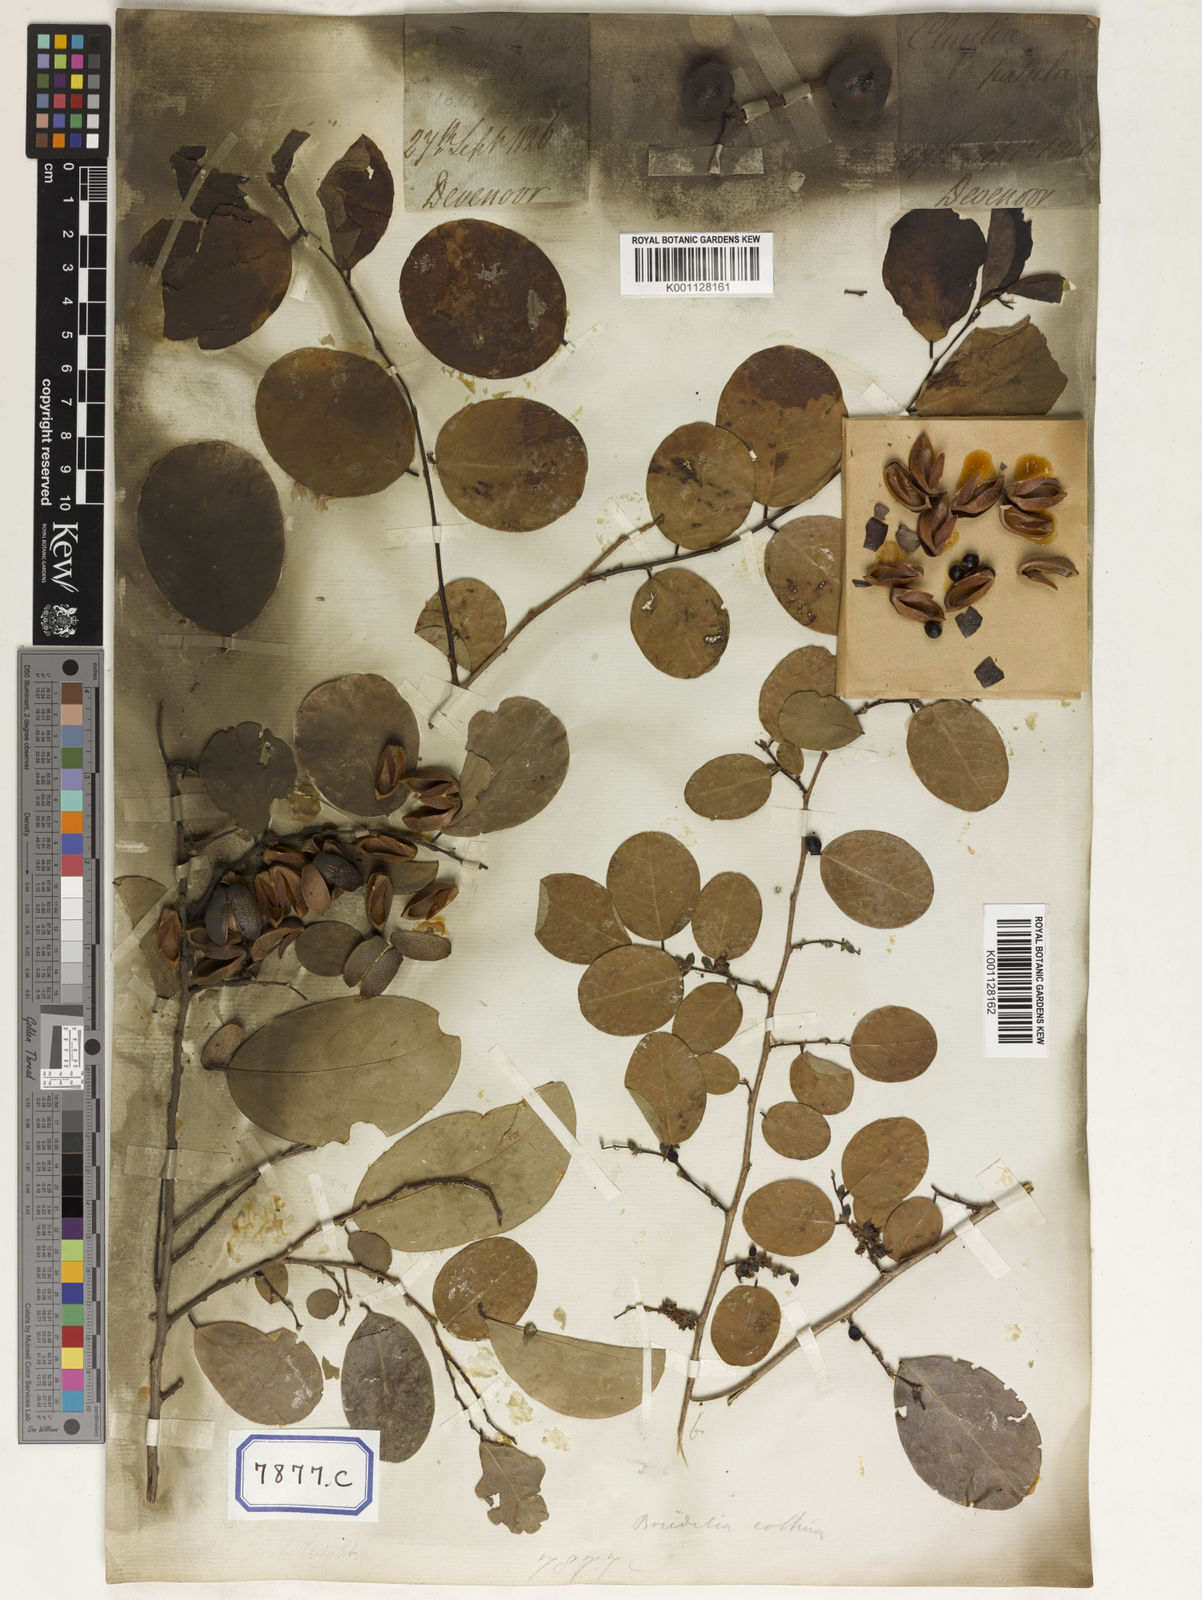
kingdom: Plantae
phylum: Tracheophyta
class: Magnoliopsida
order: Malpighiales
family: Euphorbiaceae
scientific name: Euphorbiaceae
